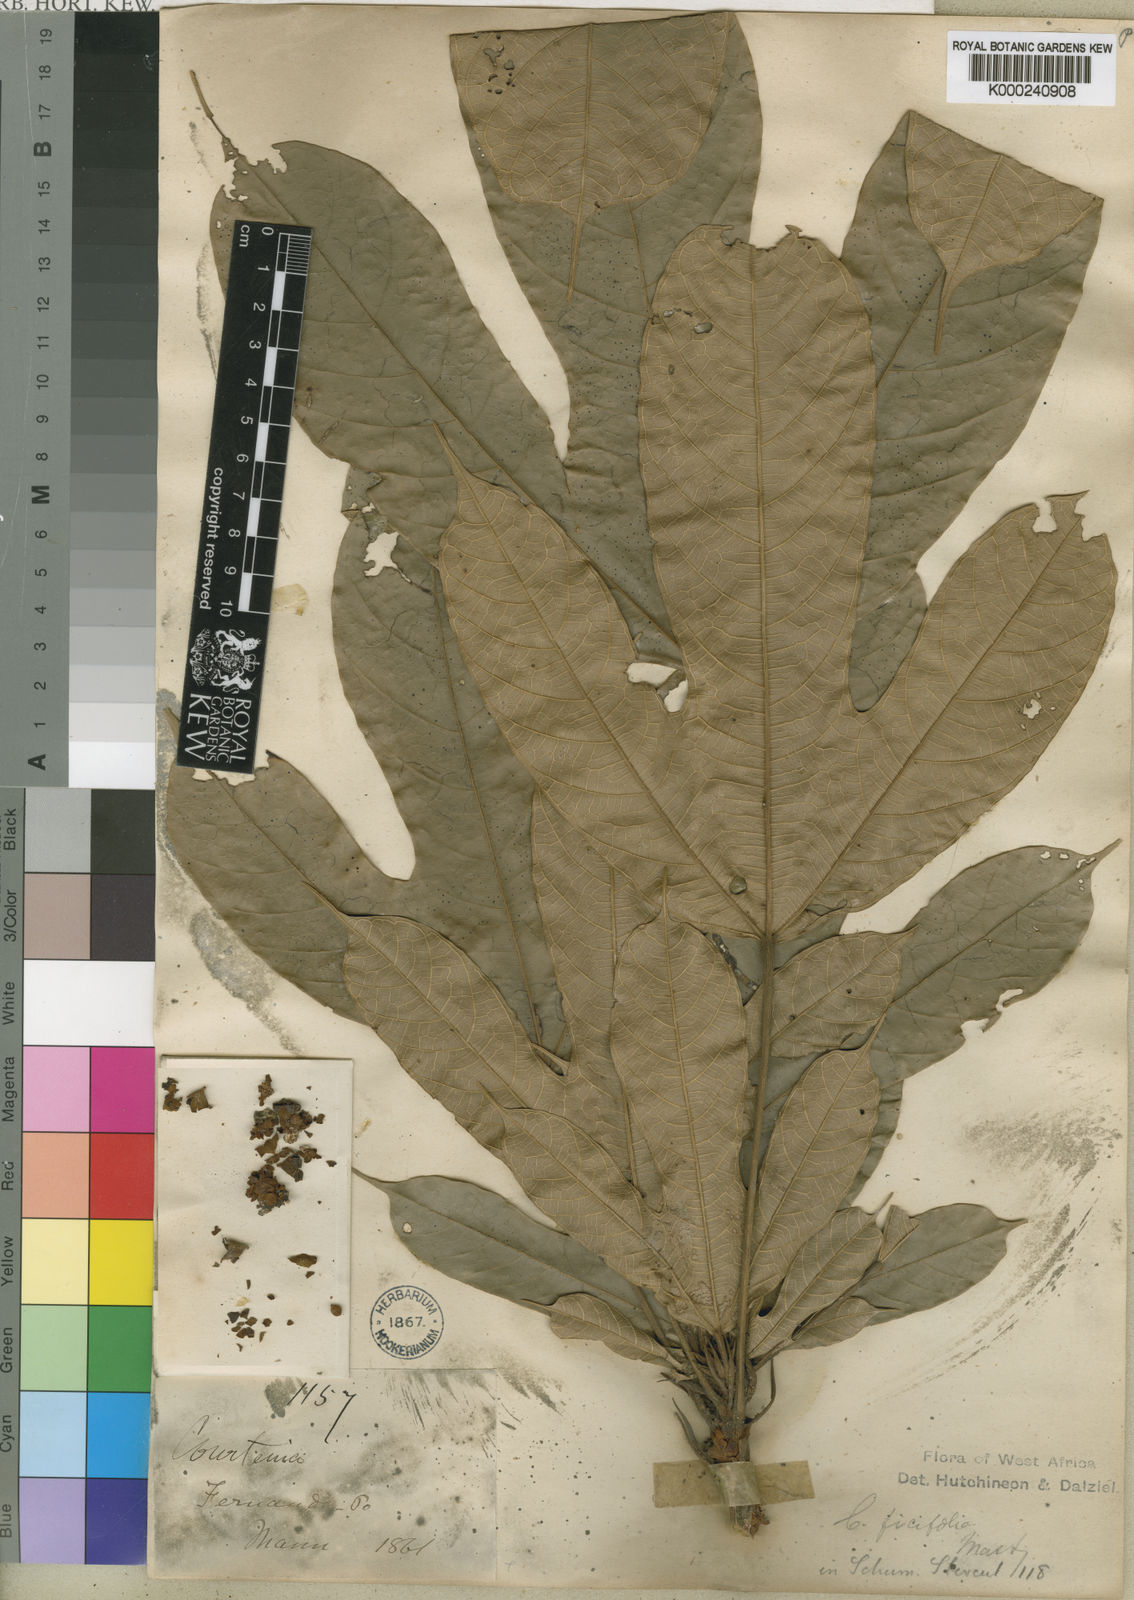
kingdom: Plantae
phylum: Tracheophyta
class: Magnoliopsida
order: Malvales
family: Malvaceae
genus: Cola
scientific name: Cola ficifolia
